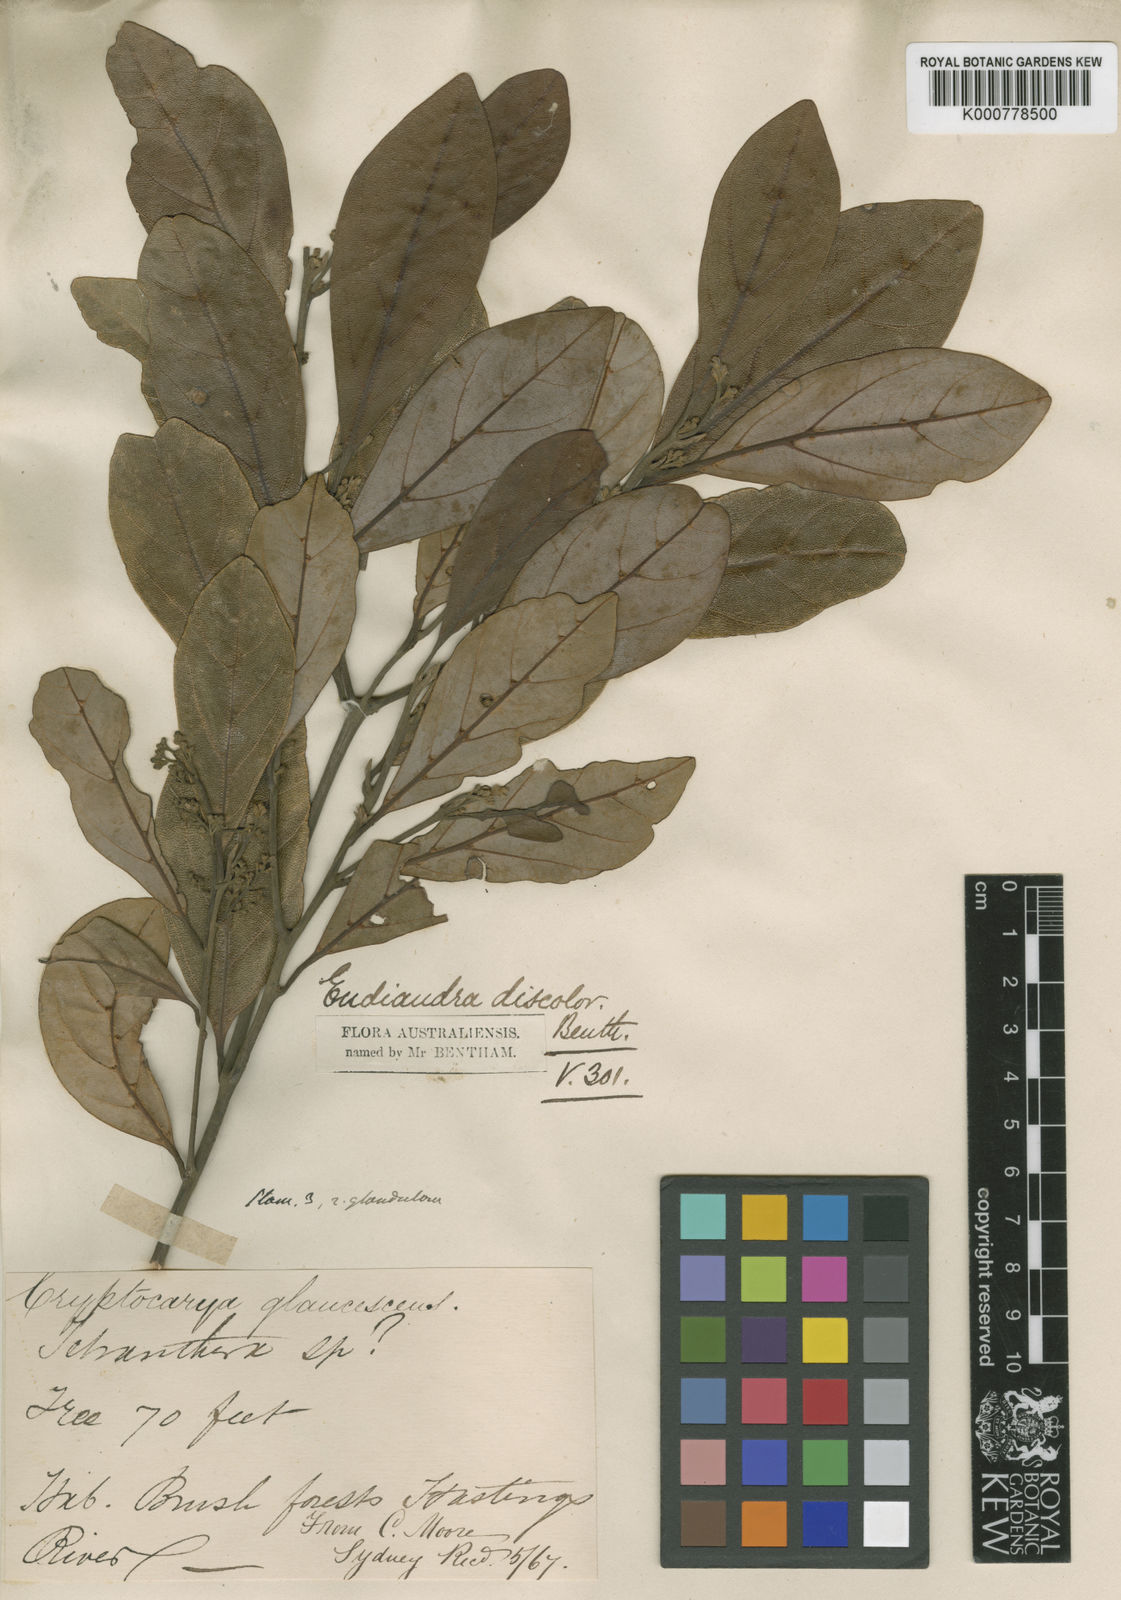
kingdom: Plantae
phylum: Tracheophyta
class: Magnoliopsida
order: Laurales
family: Lauraceae
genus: Endiandra
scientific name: Endiandra discolor
